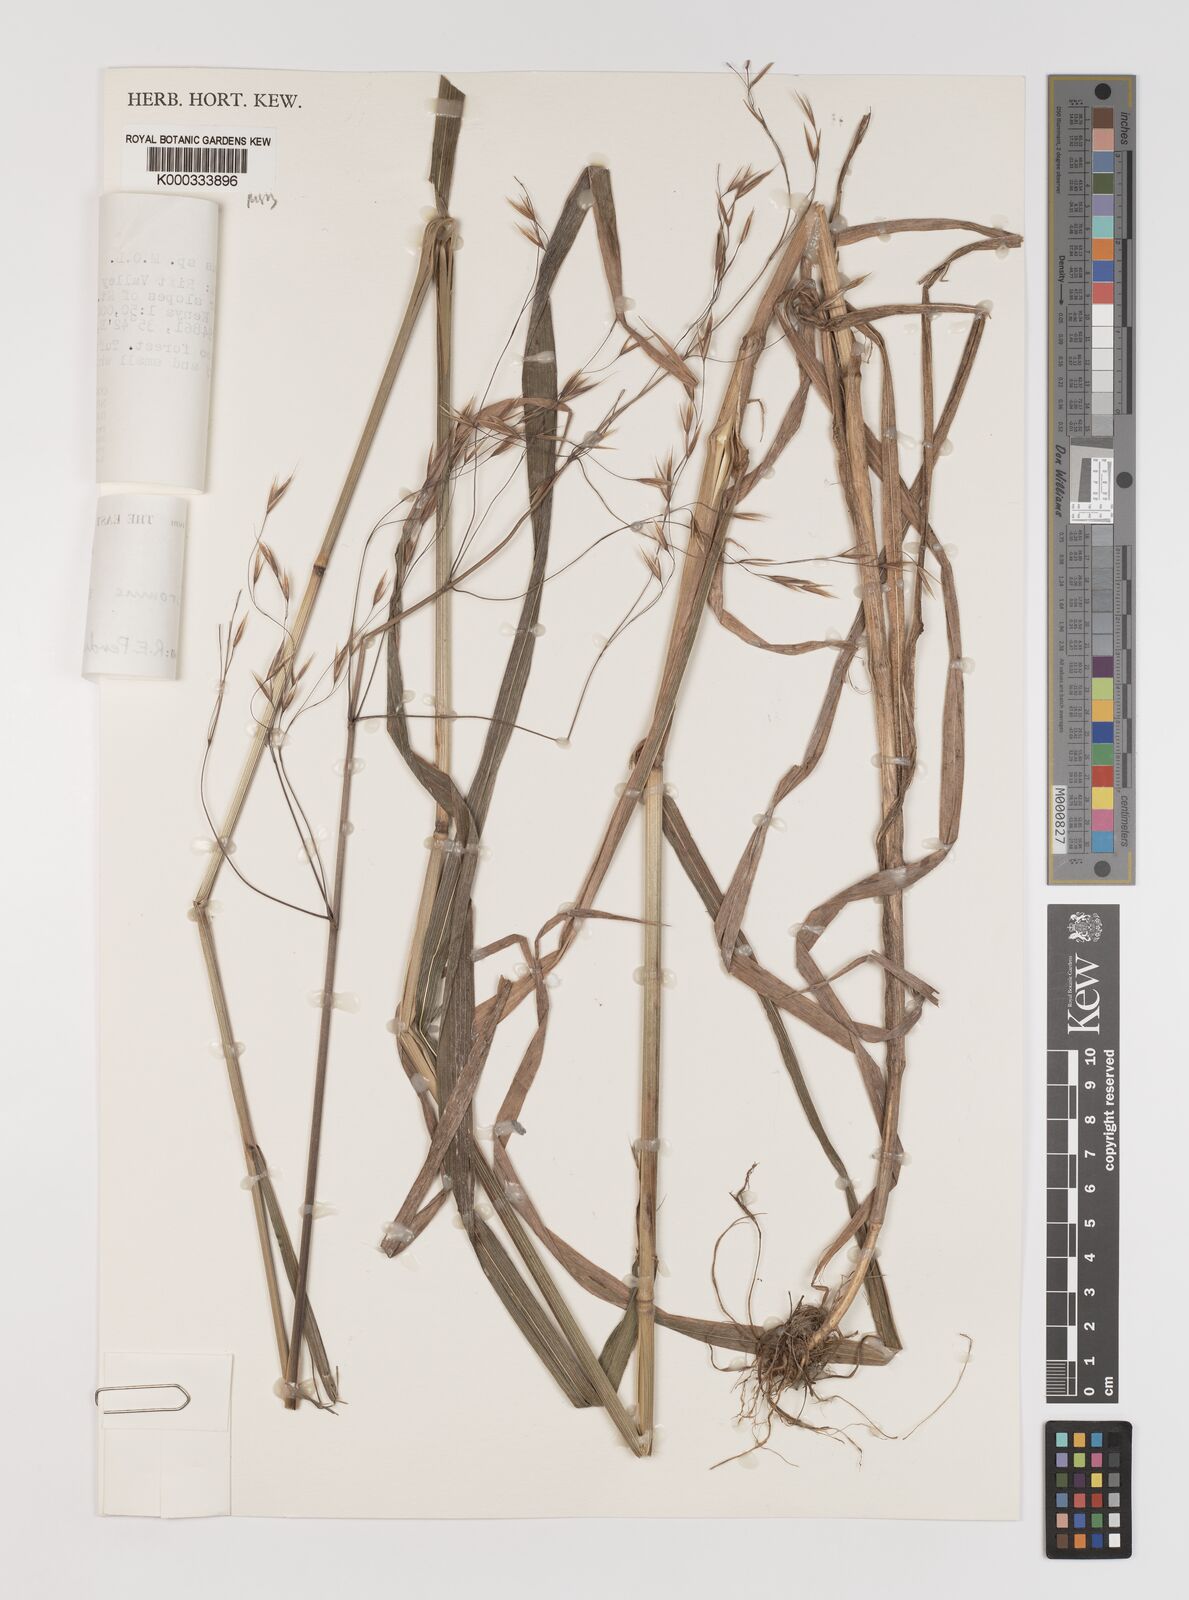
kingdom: Plantae
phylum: Tracheophyta
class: Liliopsida
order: Poales
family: Poaceae
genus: Bromus
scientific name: Bromus leptoclados
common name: Mountain bromegrass
